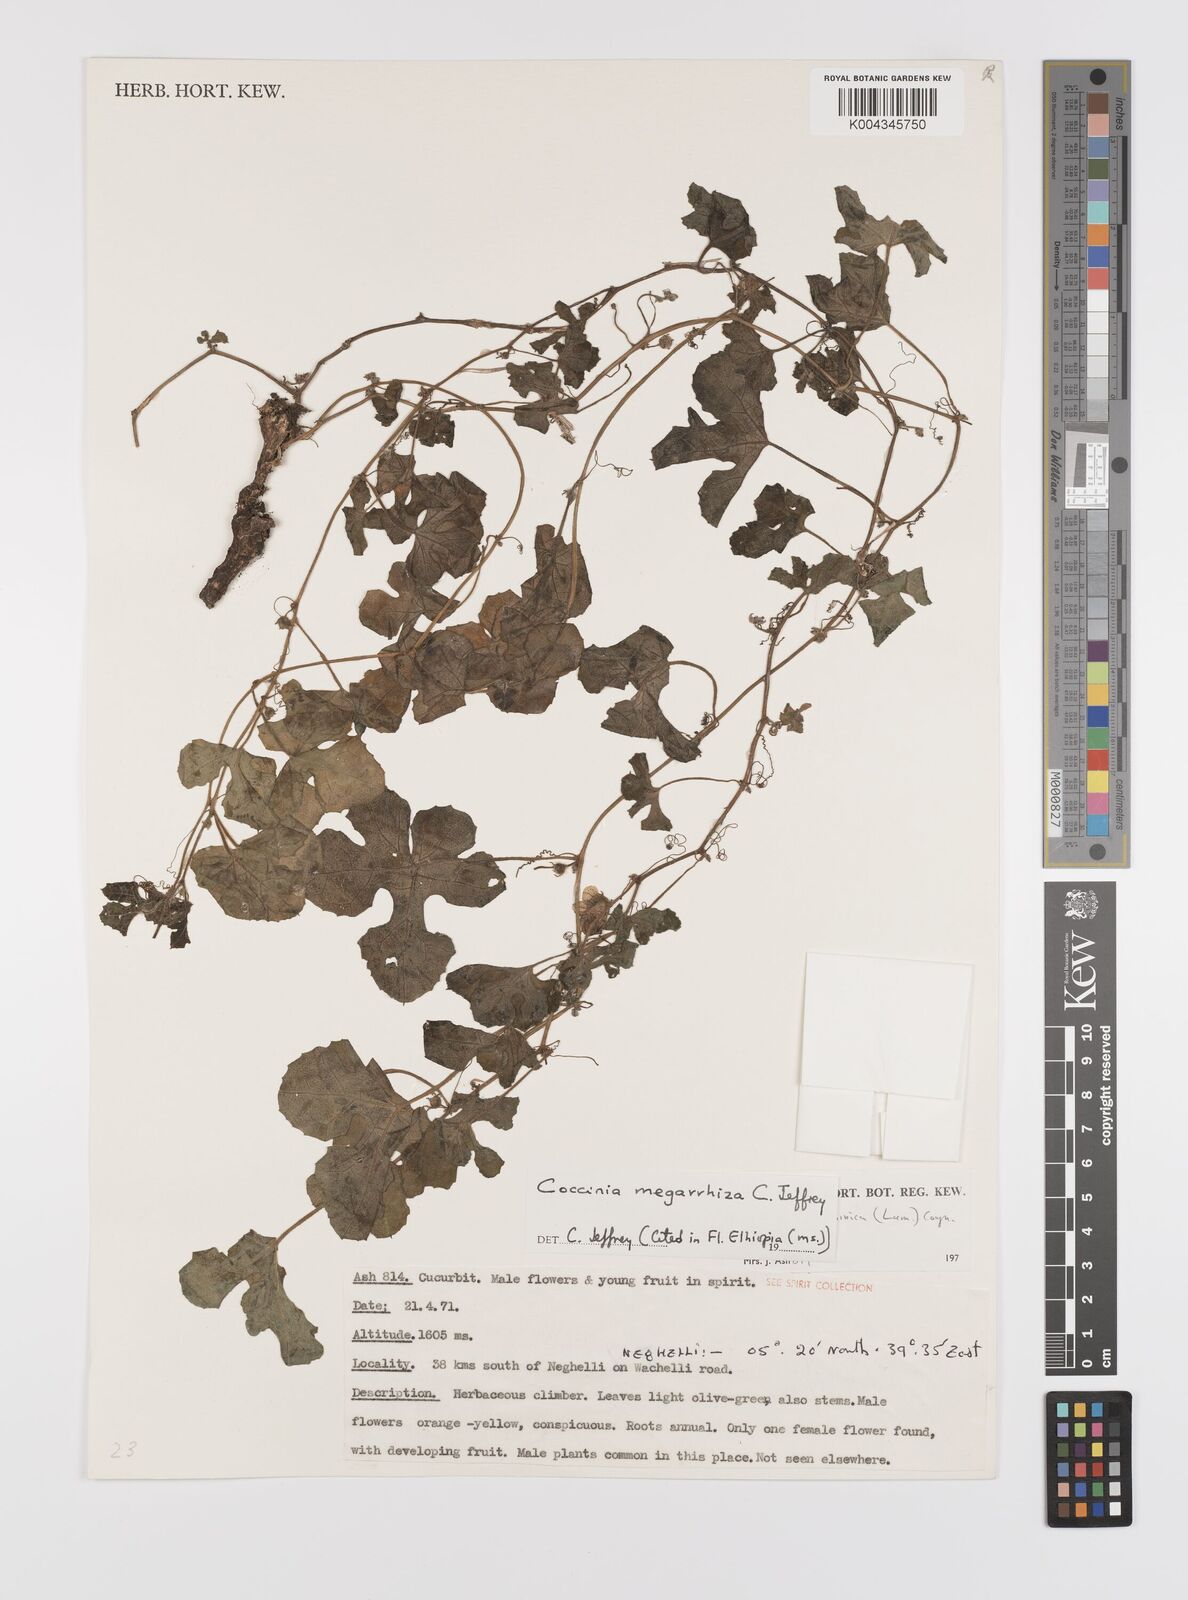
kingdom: Plantae
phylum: Tracheophyta
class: Magnoliopsida
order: Cucurbitales
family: Cucurbitaceae
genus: Coccinia
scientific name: Coccinia megarrhiza
